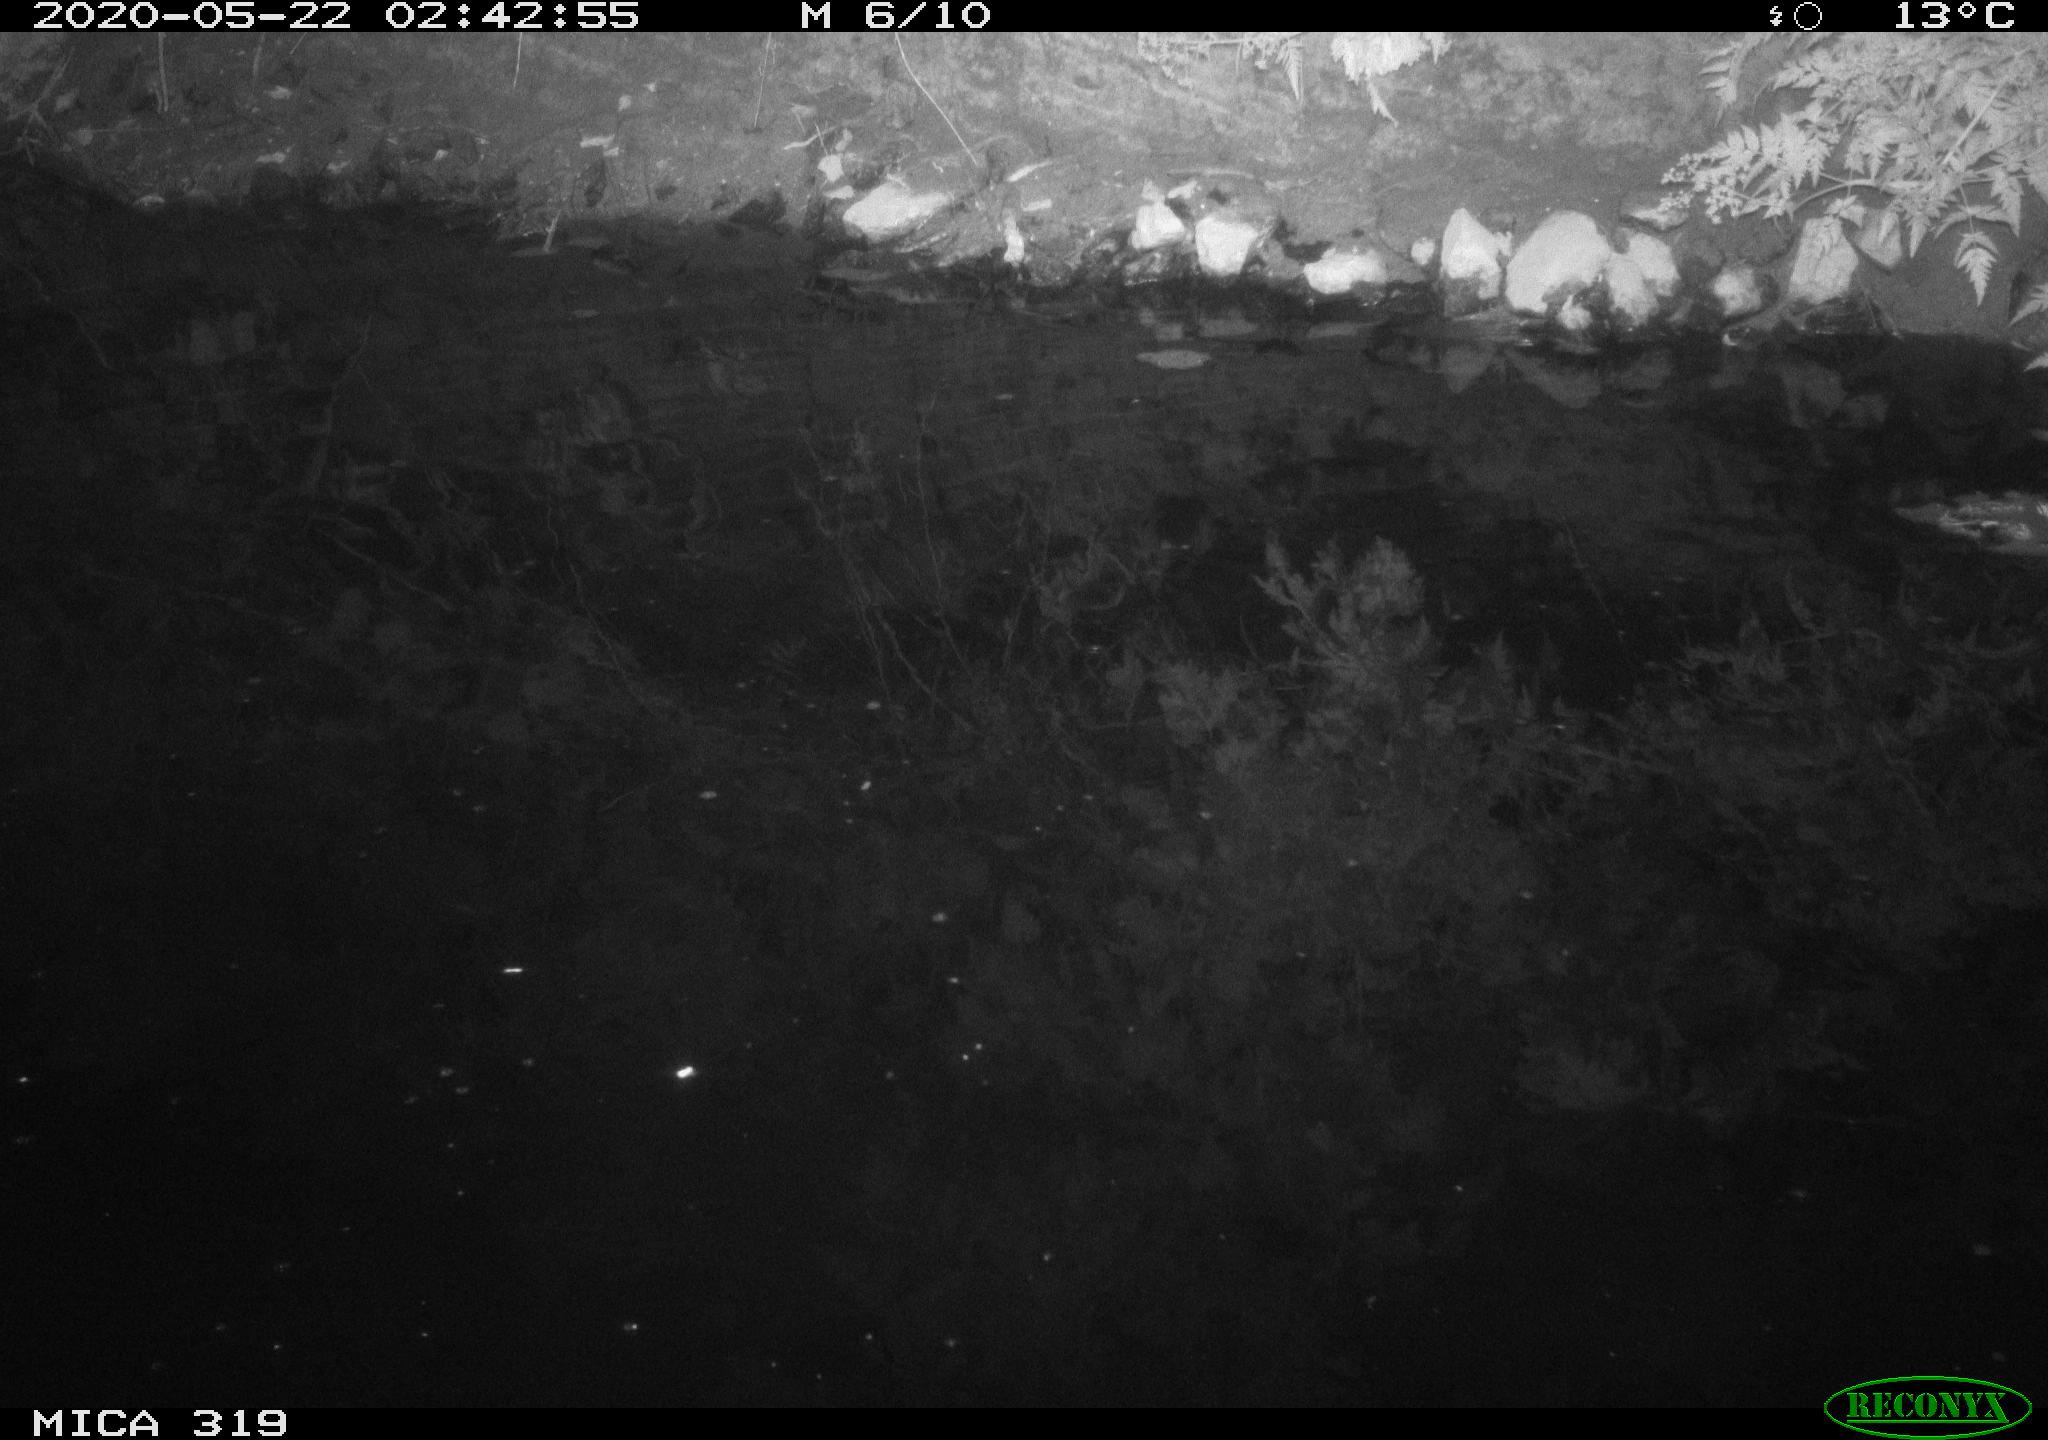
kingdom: Animalia
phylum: Chordata
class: Aves
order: Anseriformes
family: Anatidae
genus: Anas
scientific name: Anas platyrhynchos
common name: Mallard
